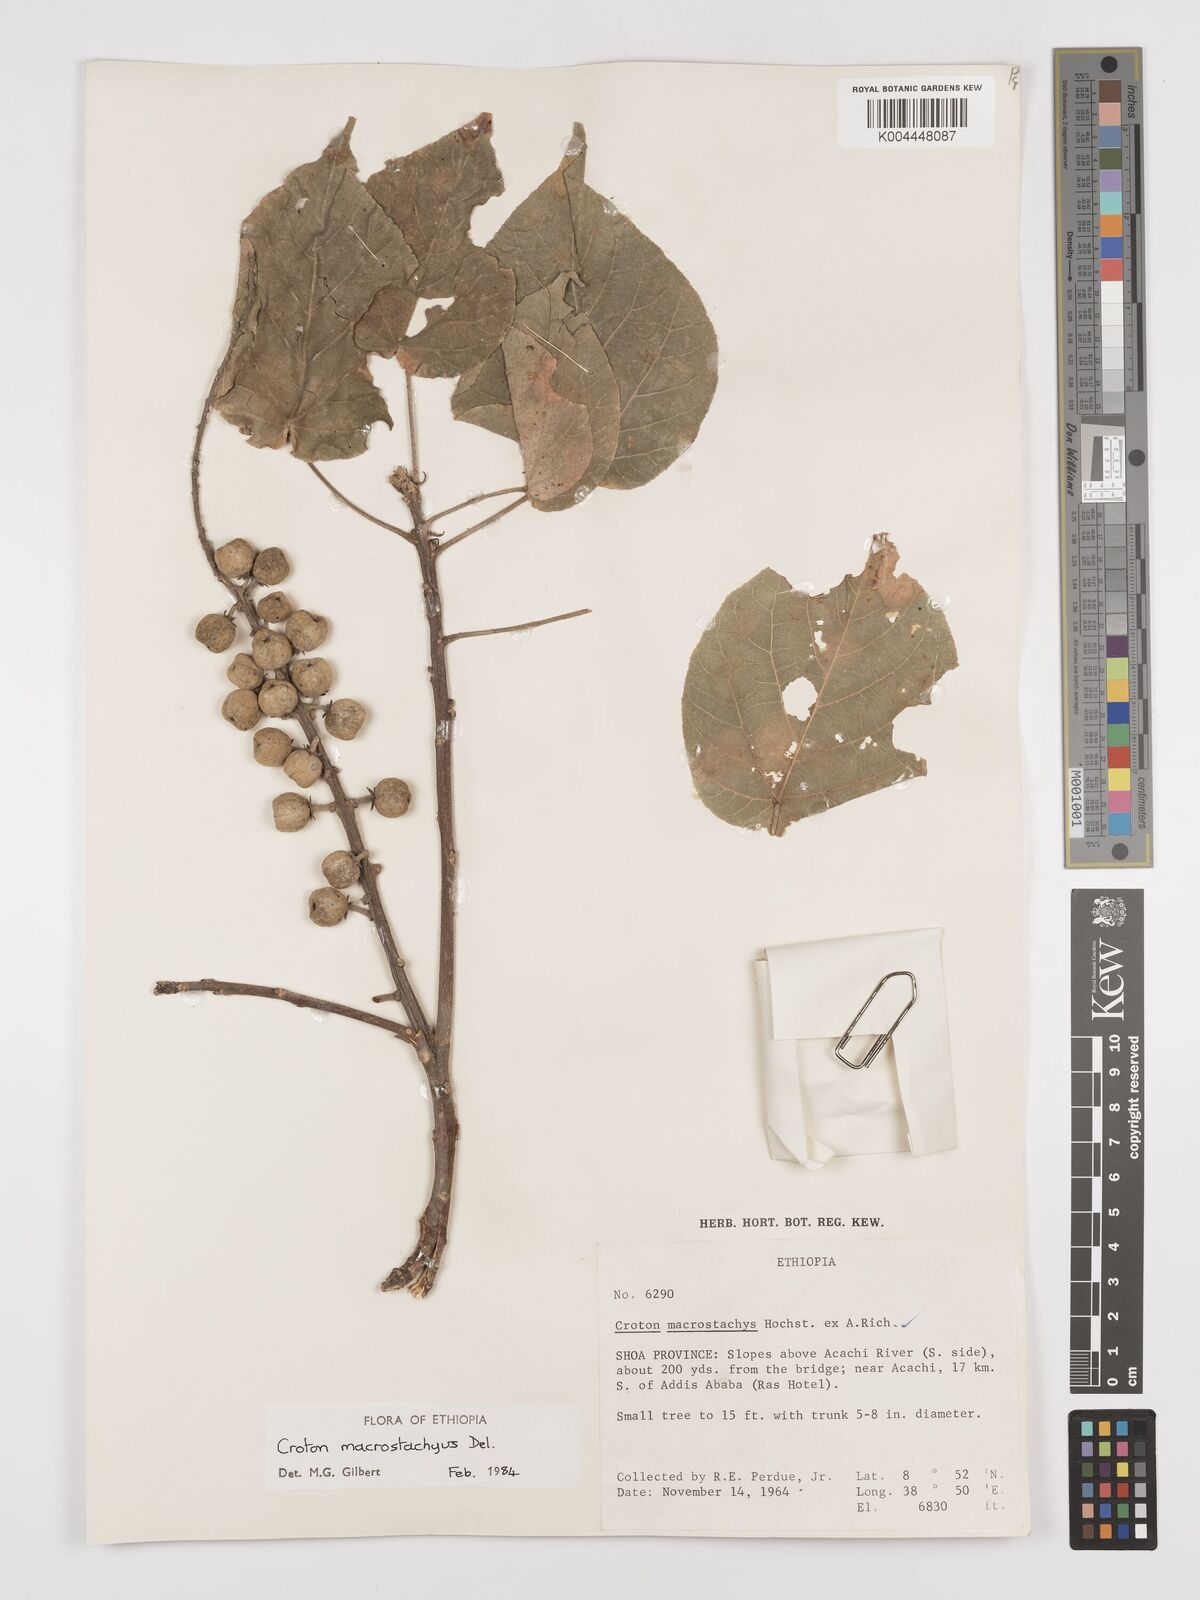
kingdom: Plantae
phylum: Tracheophyta
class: Magnoliopsida
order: Malpighiales
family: Euphorbiaceae
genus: Croton
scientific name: Croton macrostachyus
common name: Mutundu
